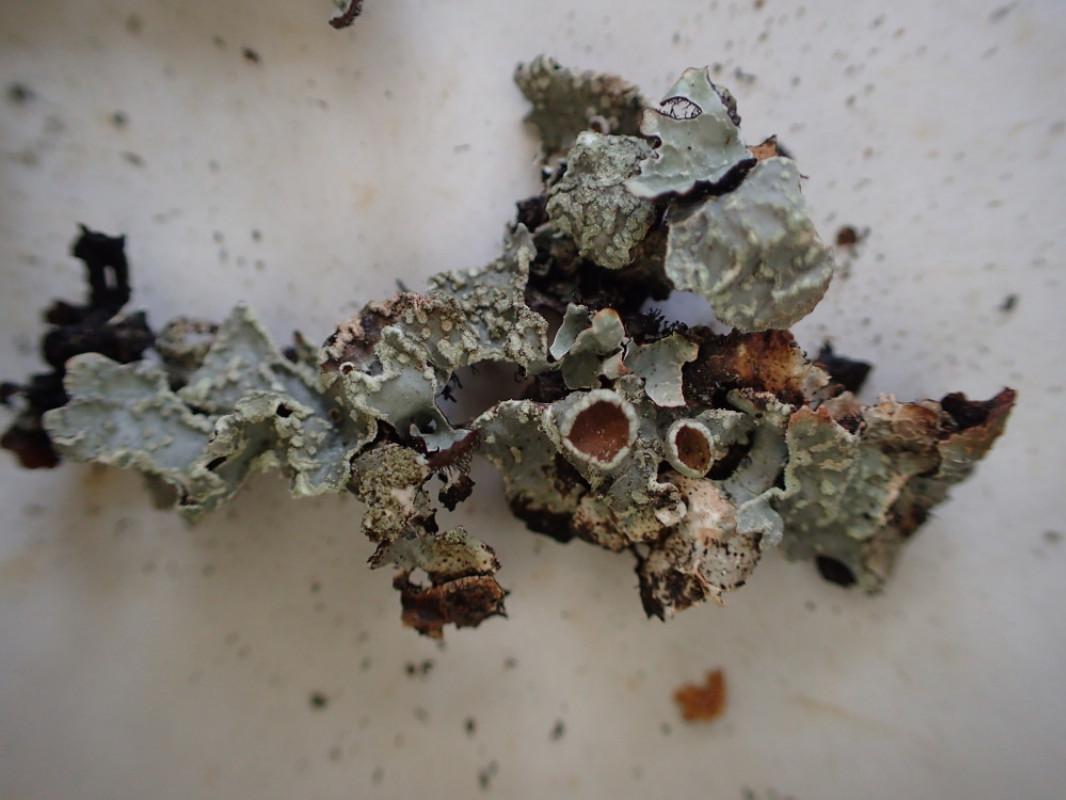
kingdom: Fungi
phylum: Ascomycota
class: Lecanoromycetes
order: Lecanorales
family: Parmeliaceae
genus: Parmelia
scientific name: Parmelia sulcata
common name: rynket skållav
